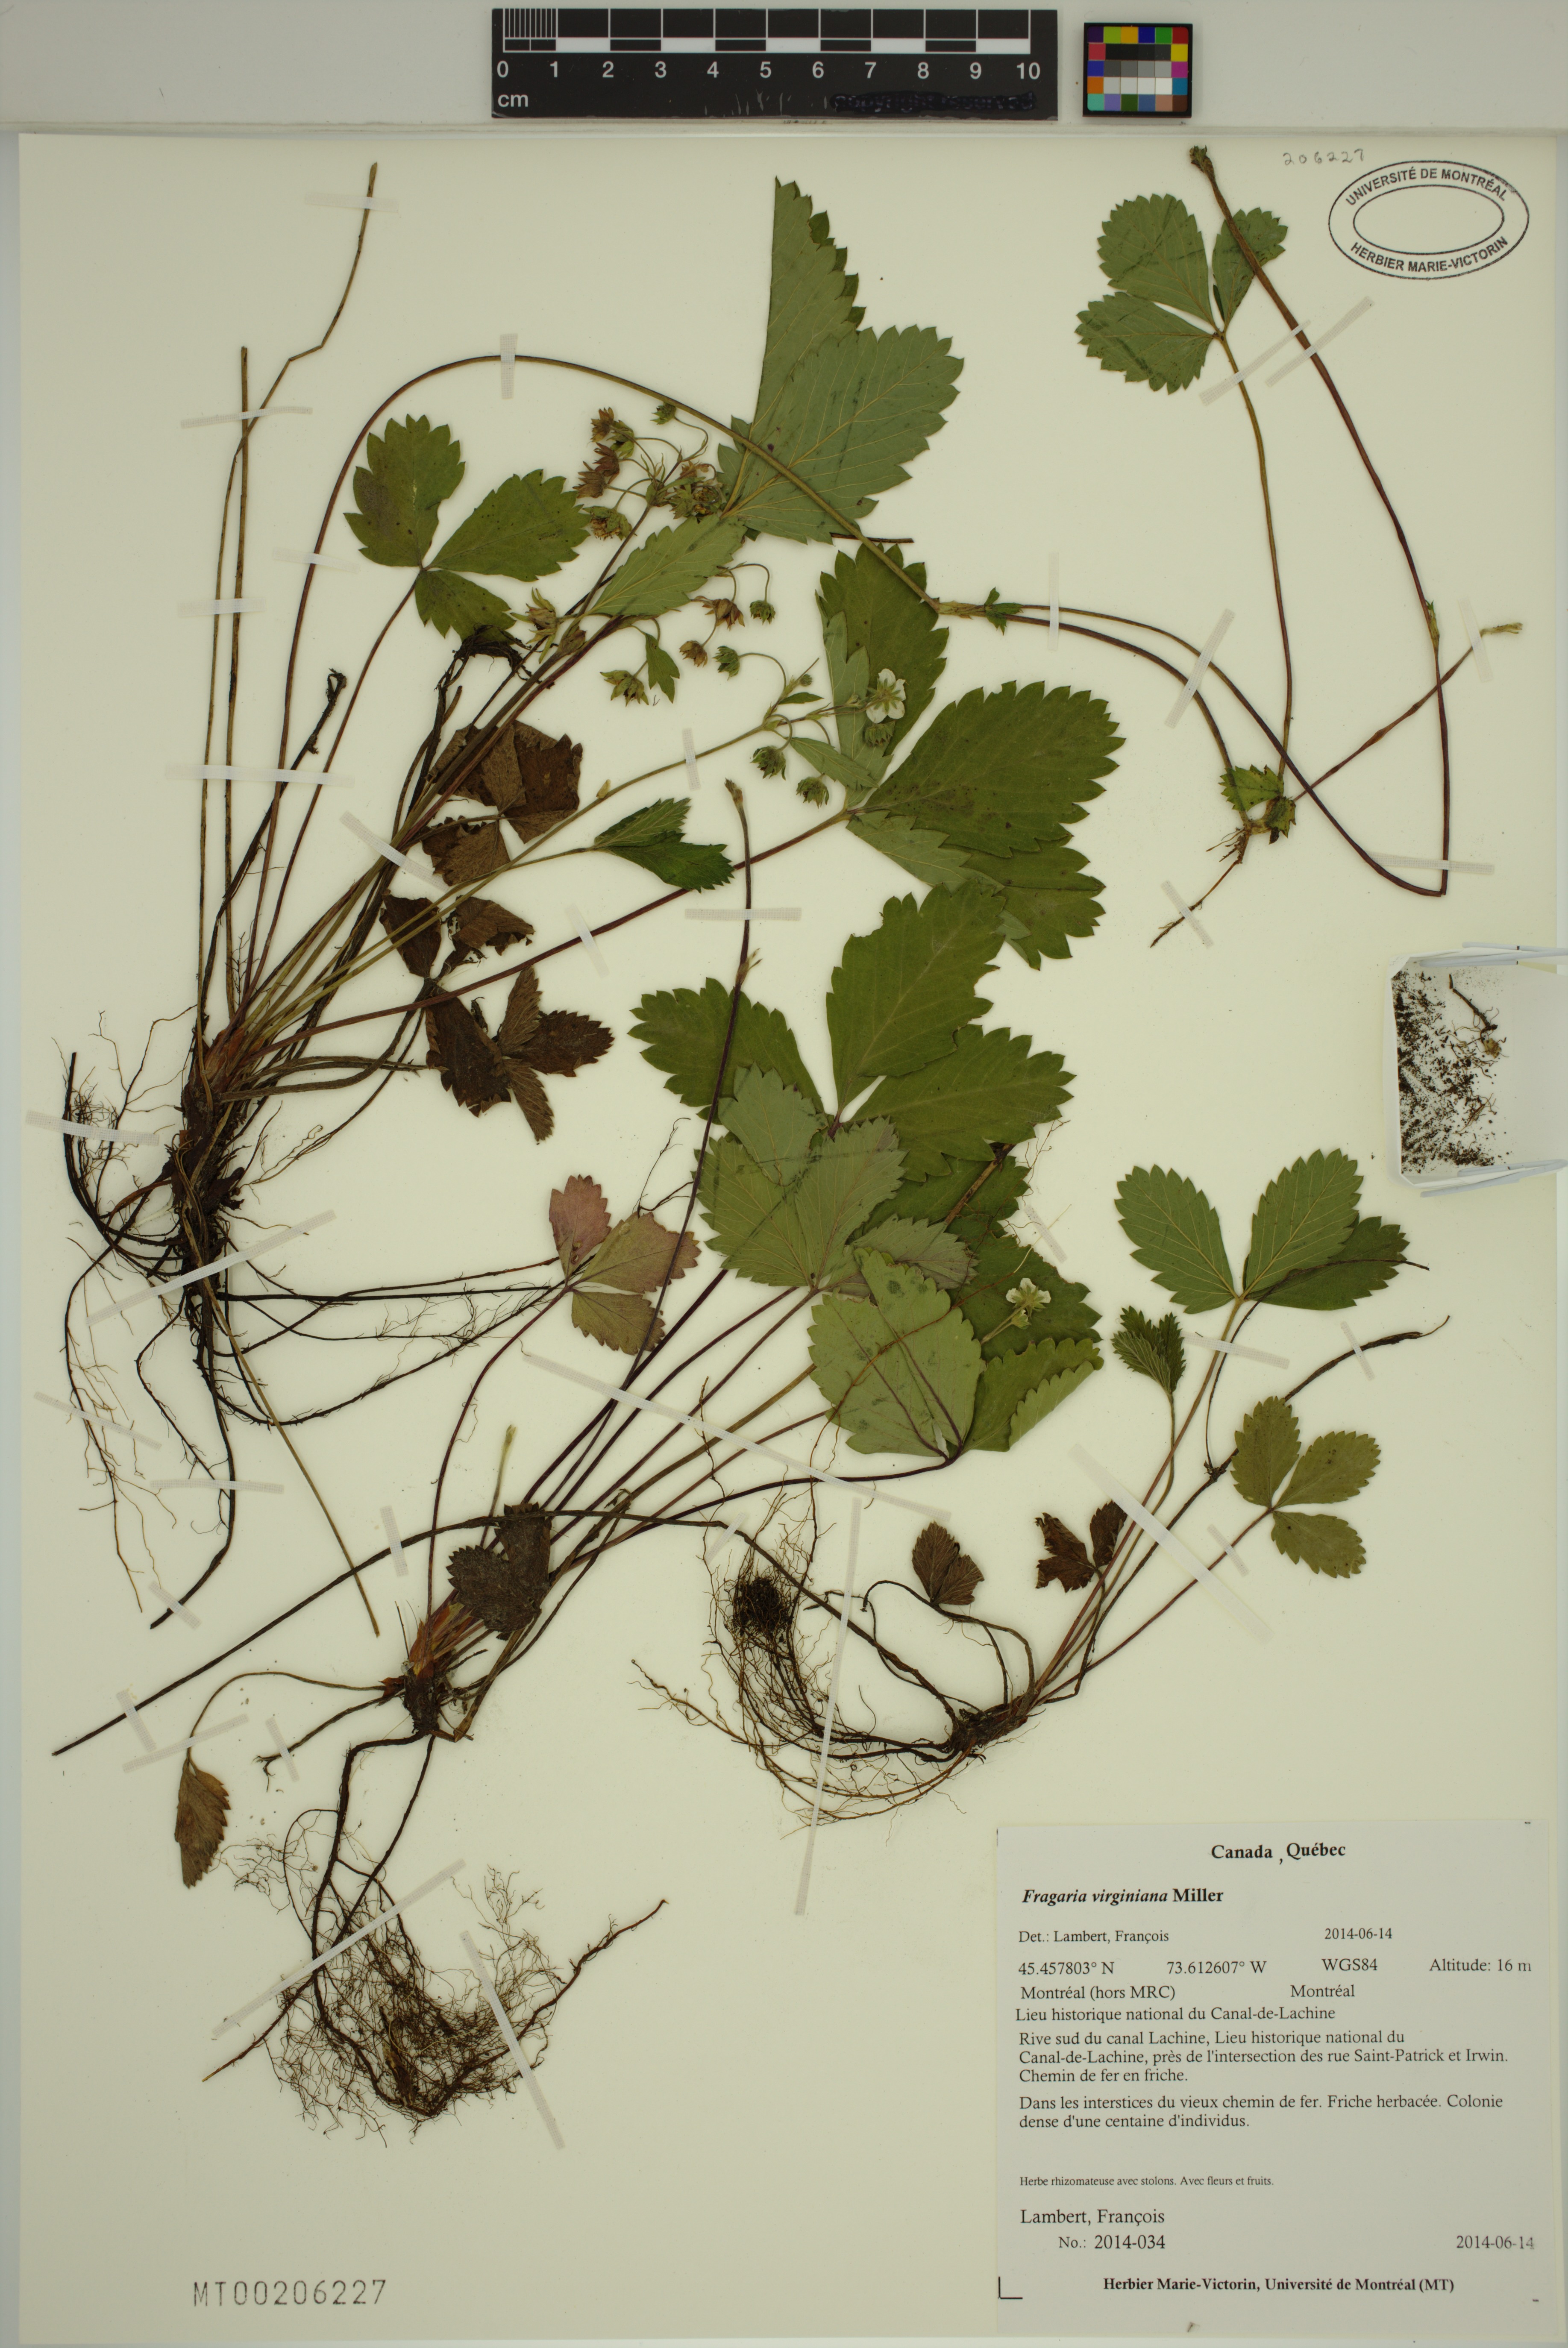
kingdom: Plantae
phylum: Tracheophyta
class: Magnoliopsida
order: Rosales
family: Rosaceae
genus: Fragaria
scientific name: Fragaria virginiana
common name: Thickleaved wild strawberry
